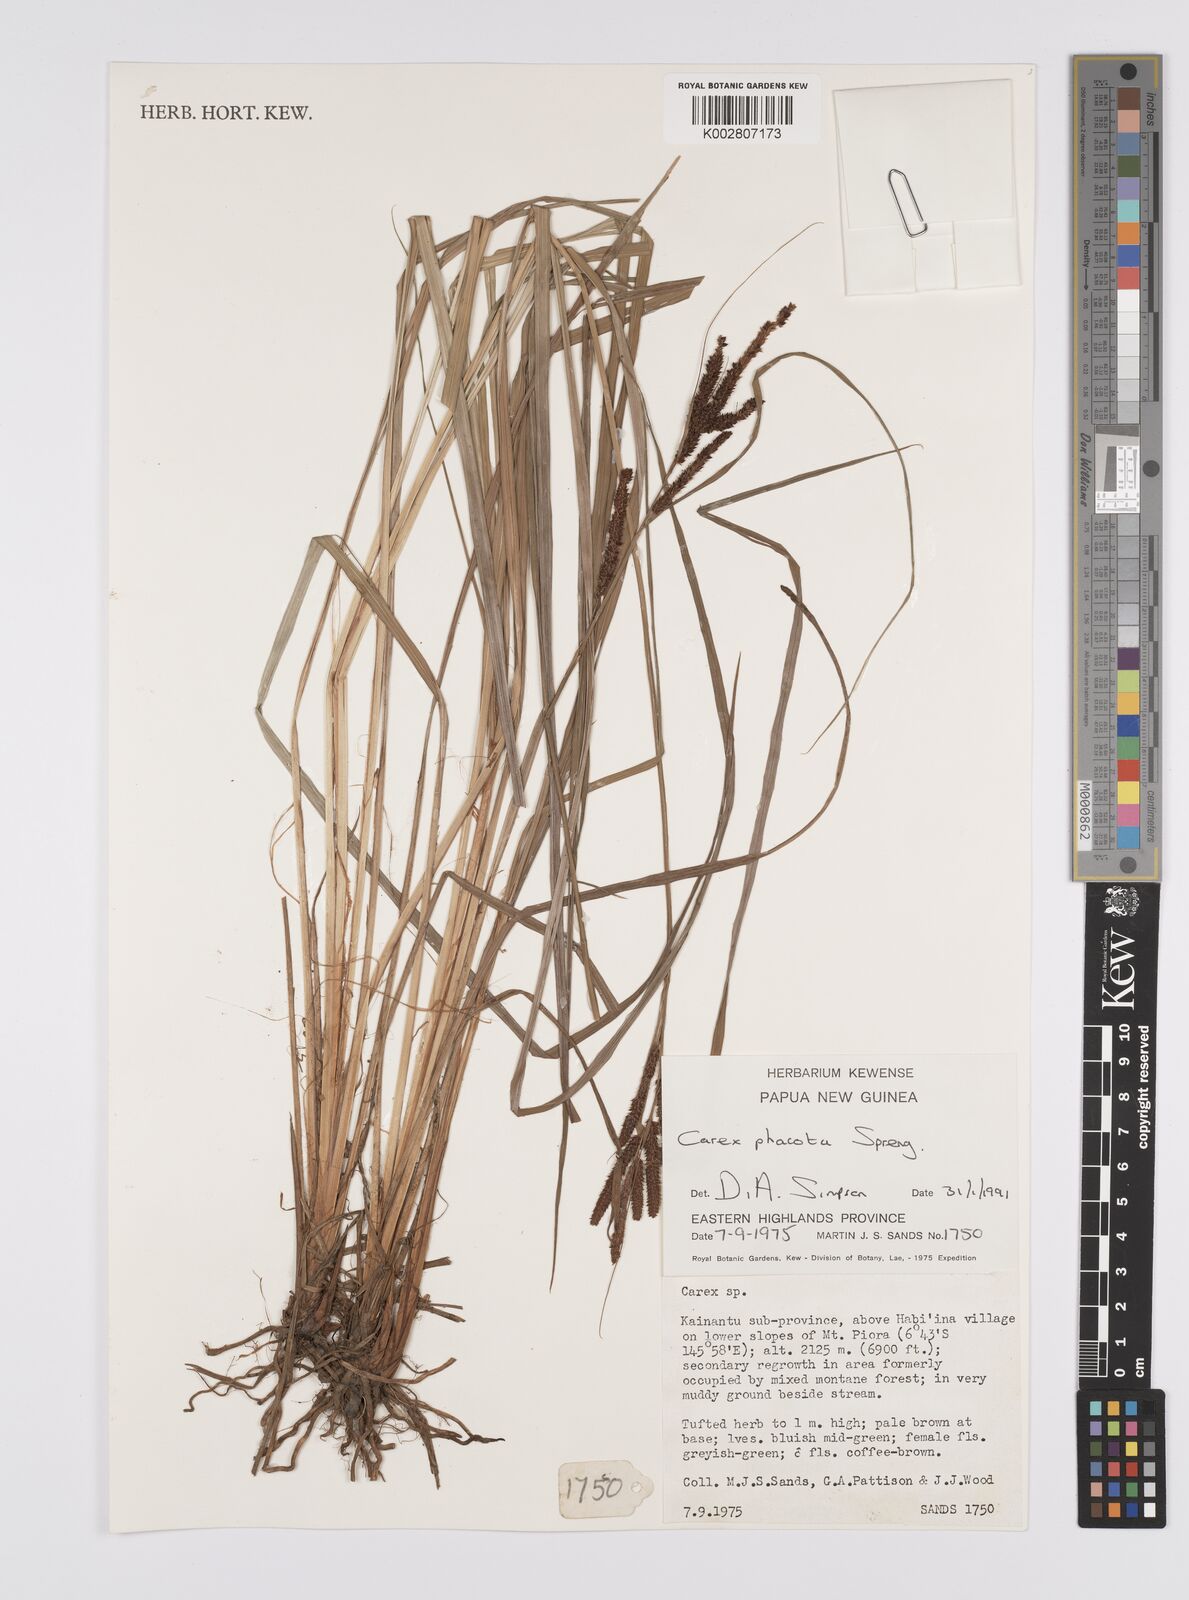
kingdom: Plantae
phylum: Tracheophyta
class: Liliopsida
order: Poales
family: Cyperaceae
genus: Carex
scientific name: Carex phacota
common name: Lakeshore sedge
